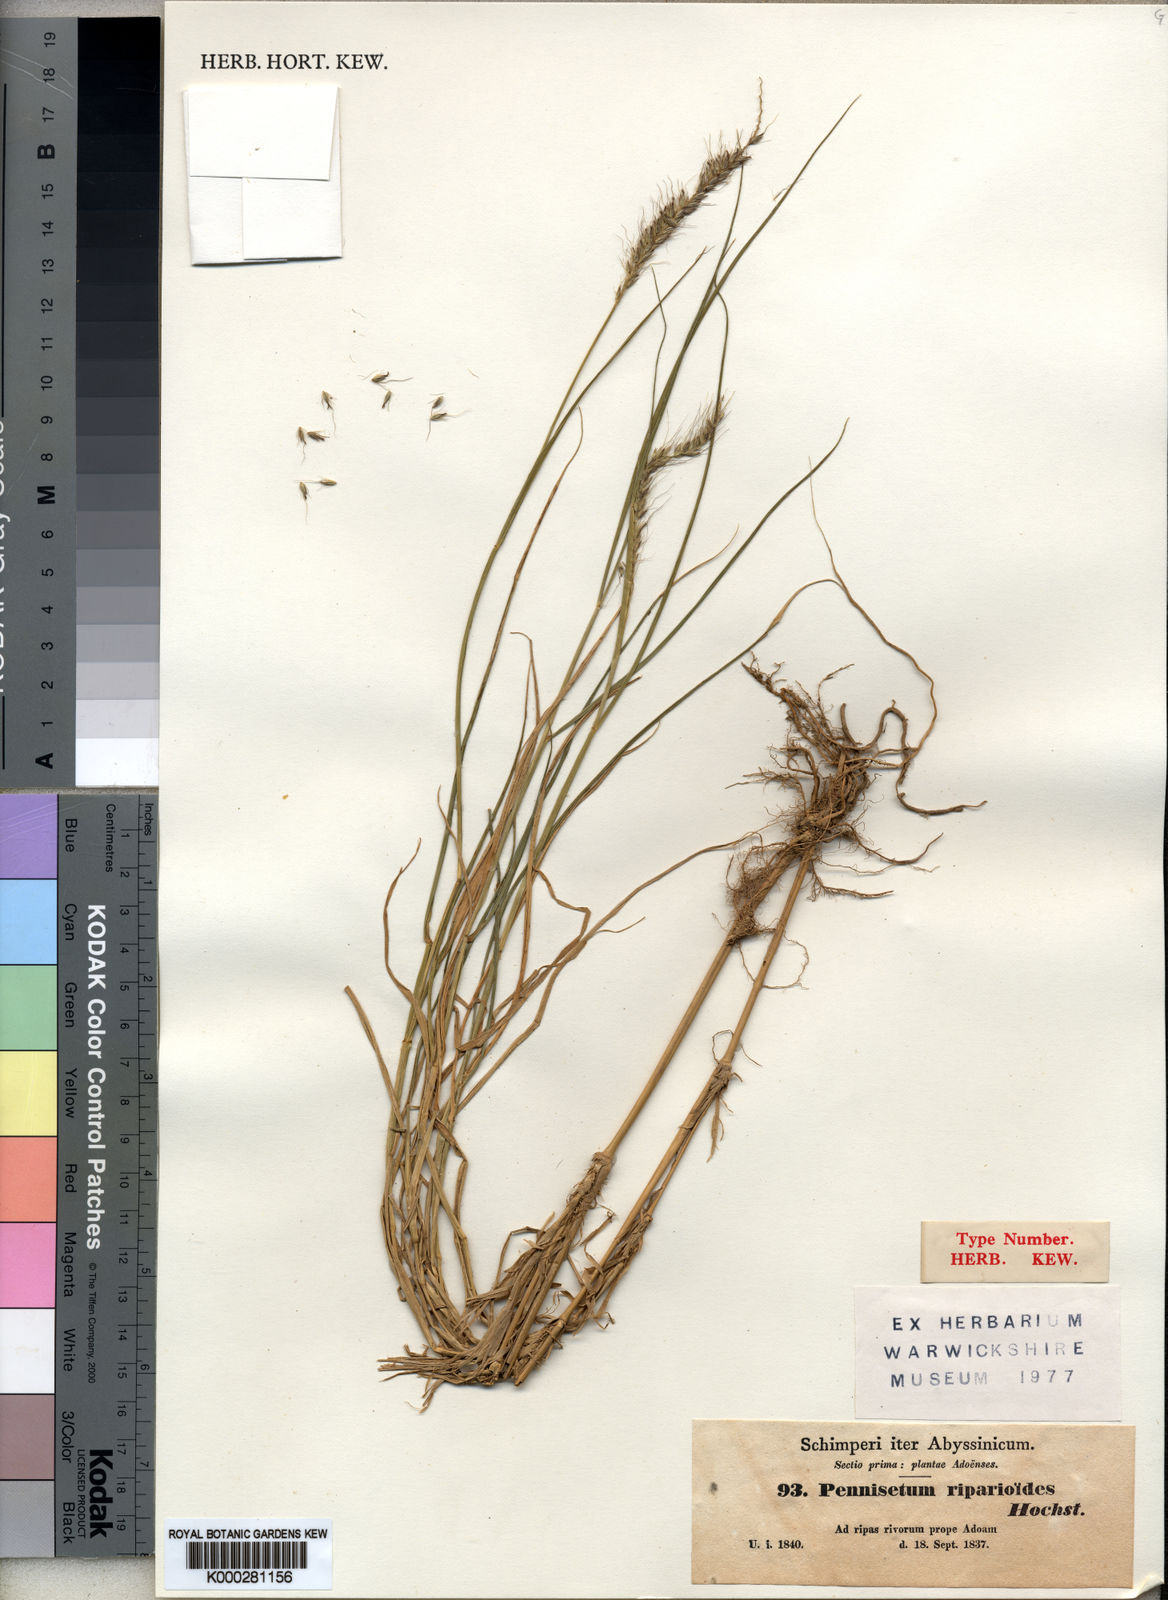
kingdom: Plantae
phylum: Tracheophyta
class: Liliopsida
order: Poales
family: Poaceae
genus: Cenchrus
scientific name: Cenchrus caudatus
